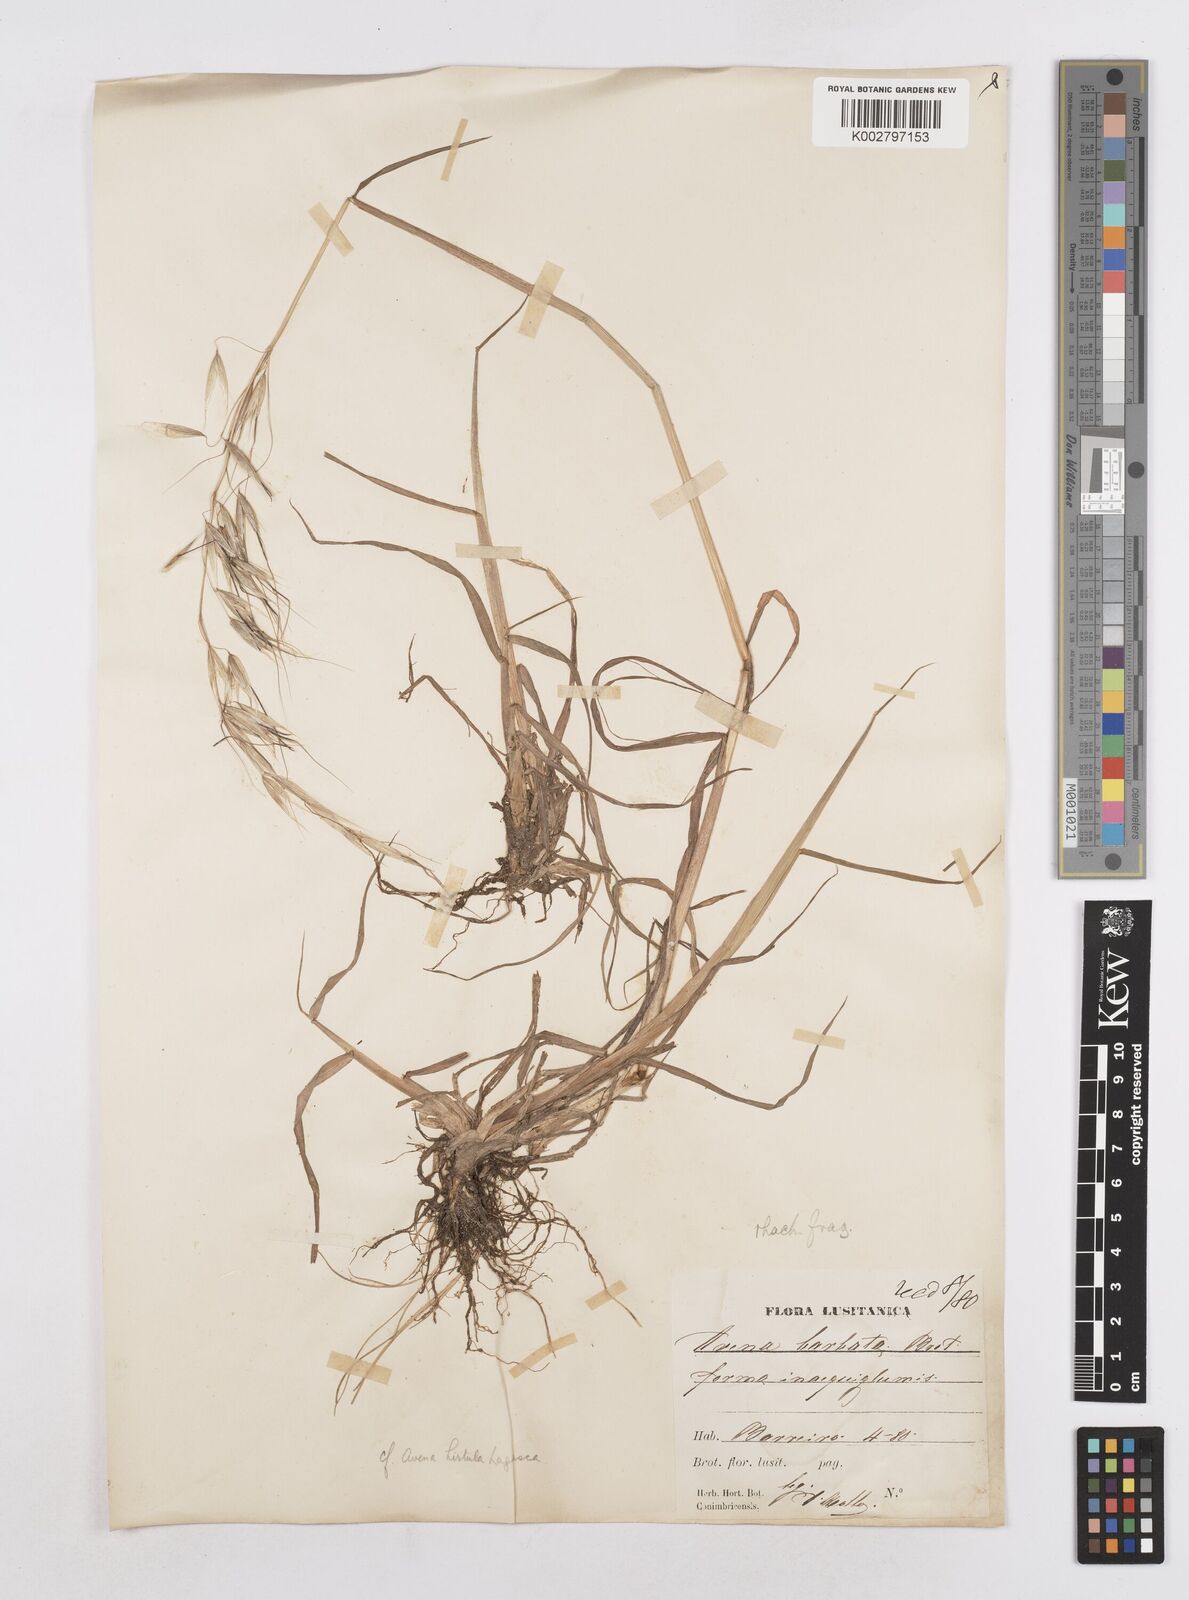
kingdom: Plantae
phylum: Tracheophyta
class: Liliopsida
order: Poales
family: Poaceae
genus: Avena
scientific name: Avena
